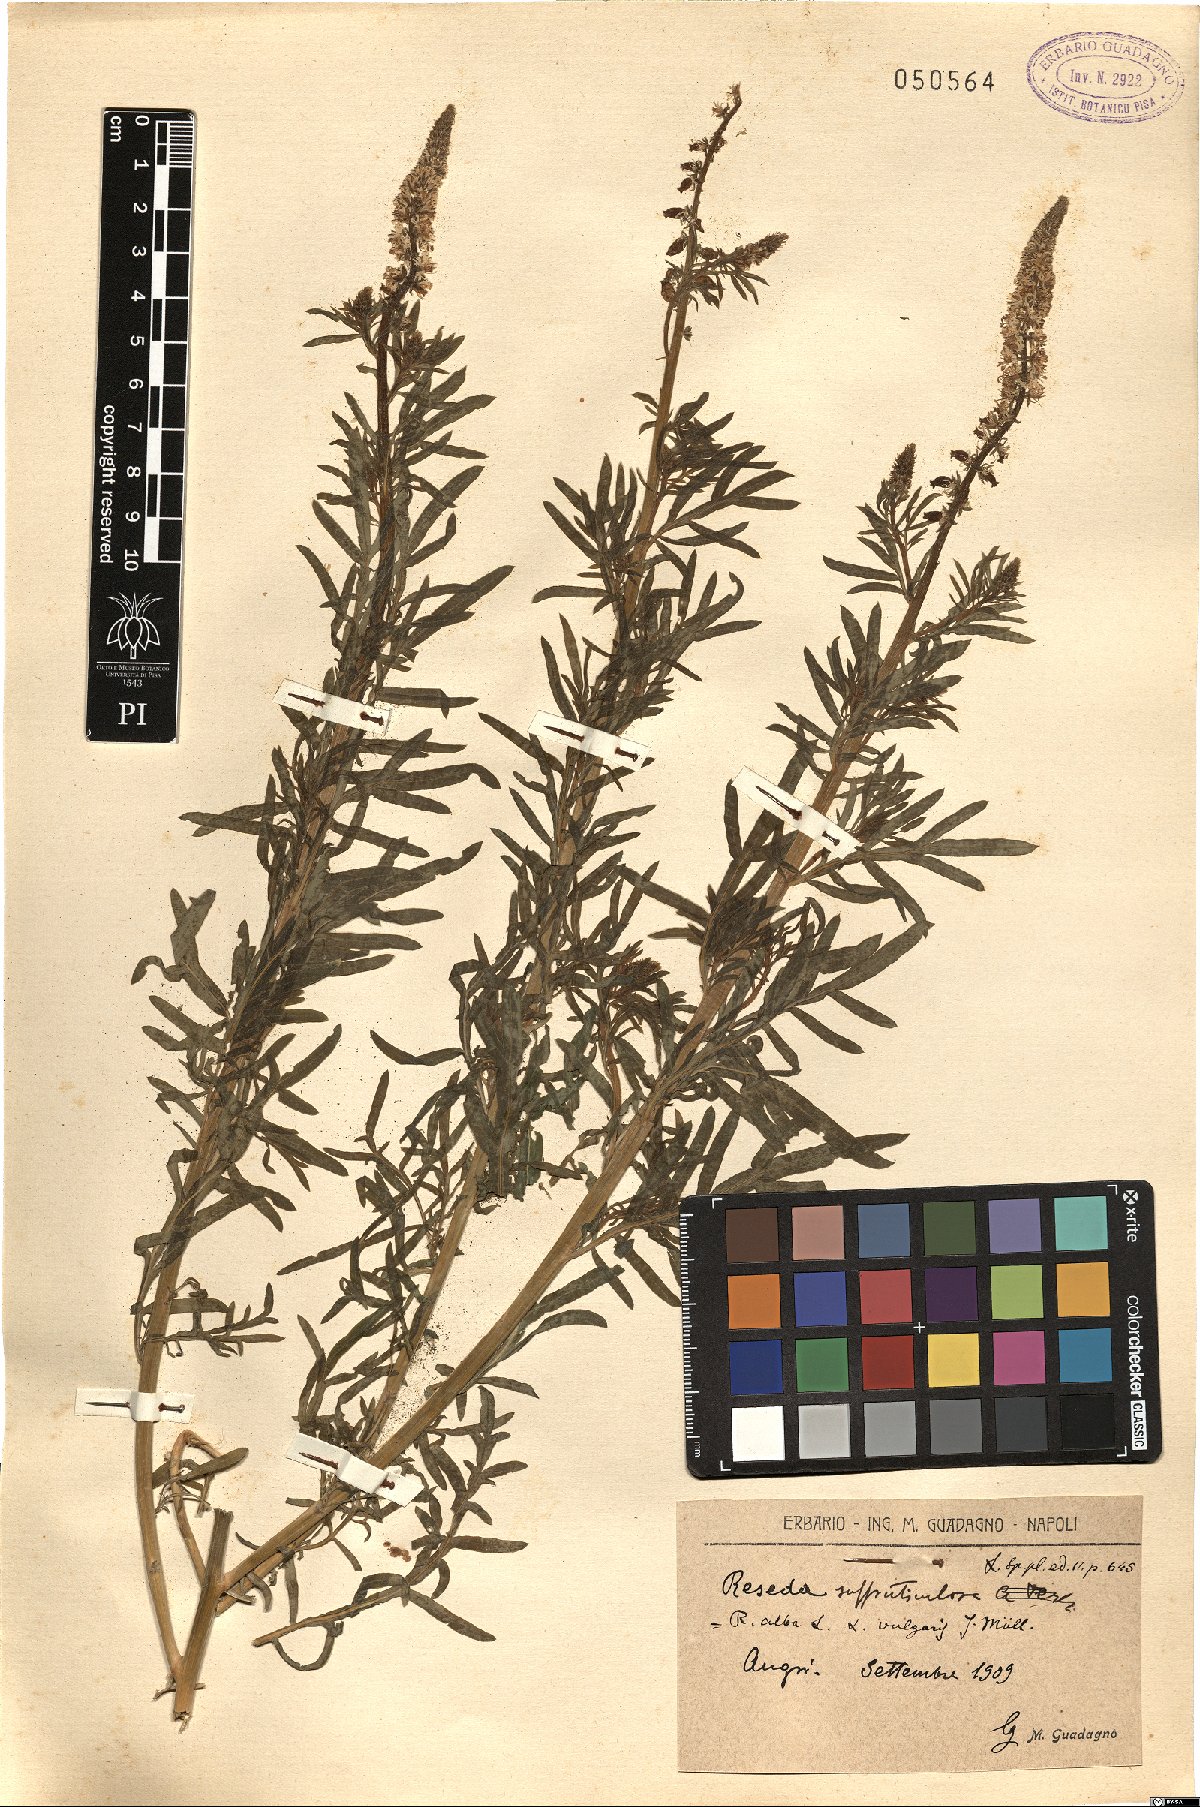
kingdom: Plantae
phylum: Tracheophyta
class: Magnoliopsida
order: Brassicales
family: Resedaceae
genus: Reseda
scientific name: Reseda alba
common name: White mignonette
